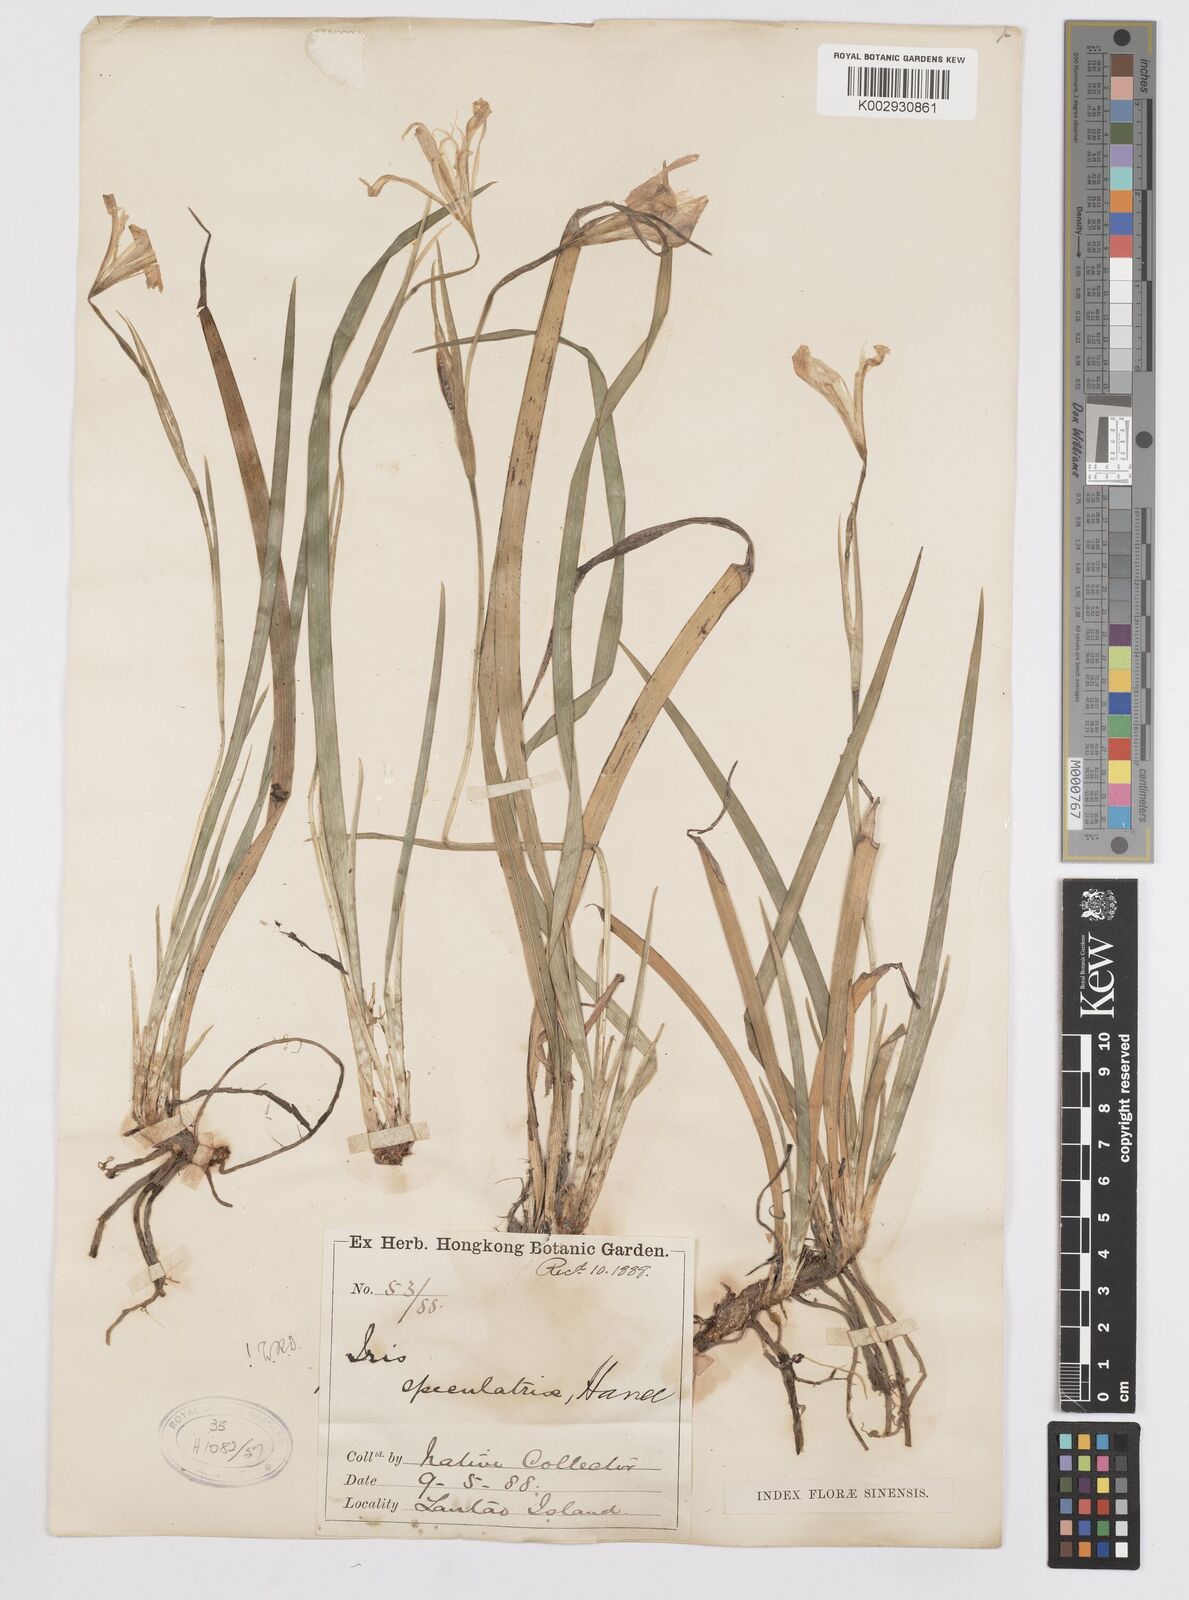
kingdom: Plantae
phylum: Tracheophyta
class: Liliopsida
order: Asparagales
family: Iridaceae
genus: Iris
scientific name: Iris speculatrix
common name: Small-flower iris
